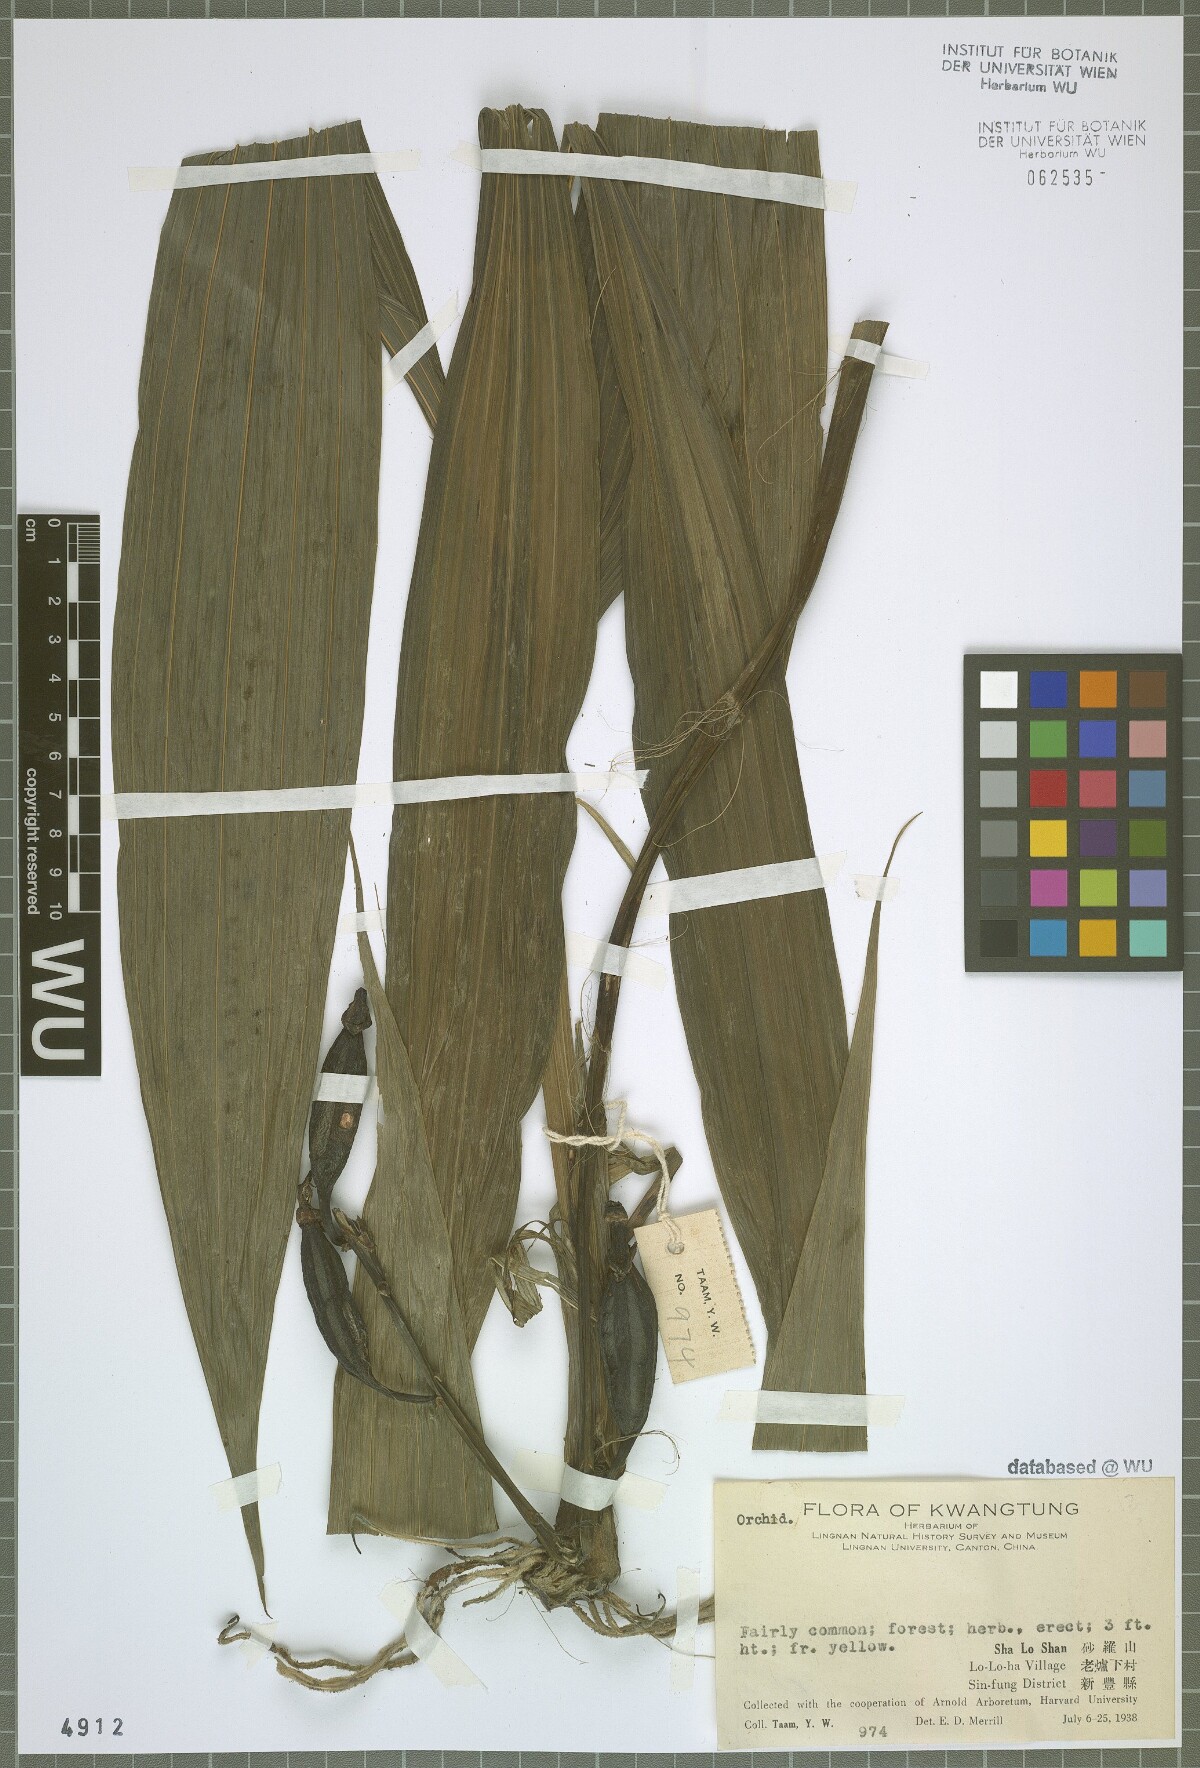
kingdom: Plantae
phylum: Tracheophyta
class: Liliopsida
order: Asparagales
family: Orchidaceae
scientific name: Orchidaceae
